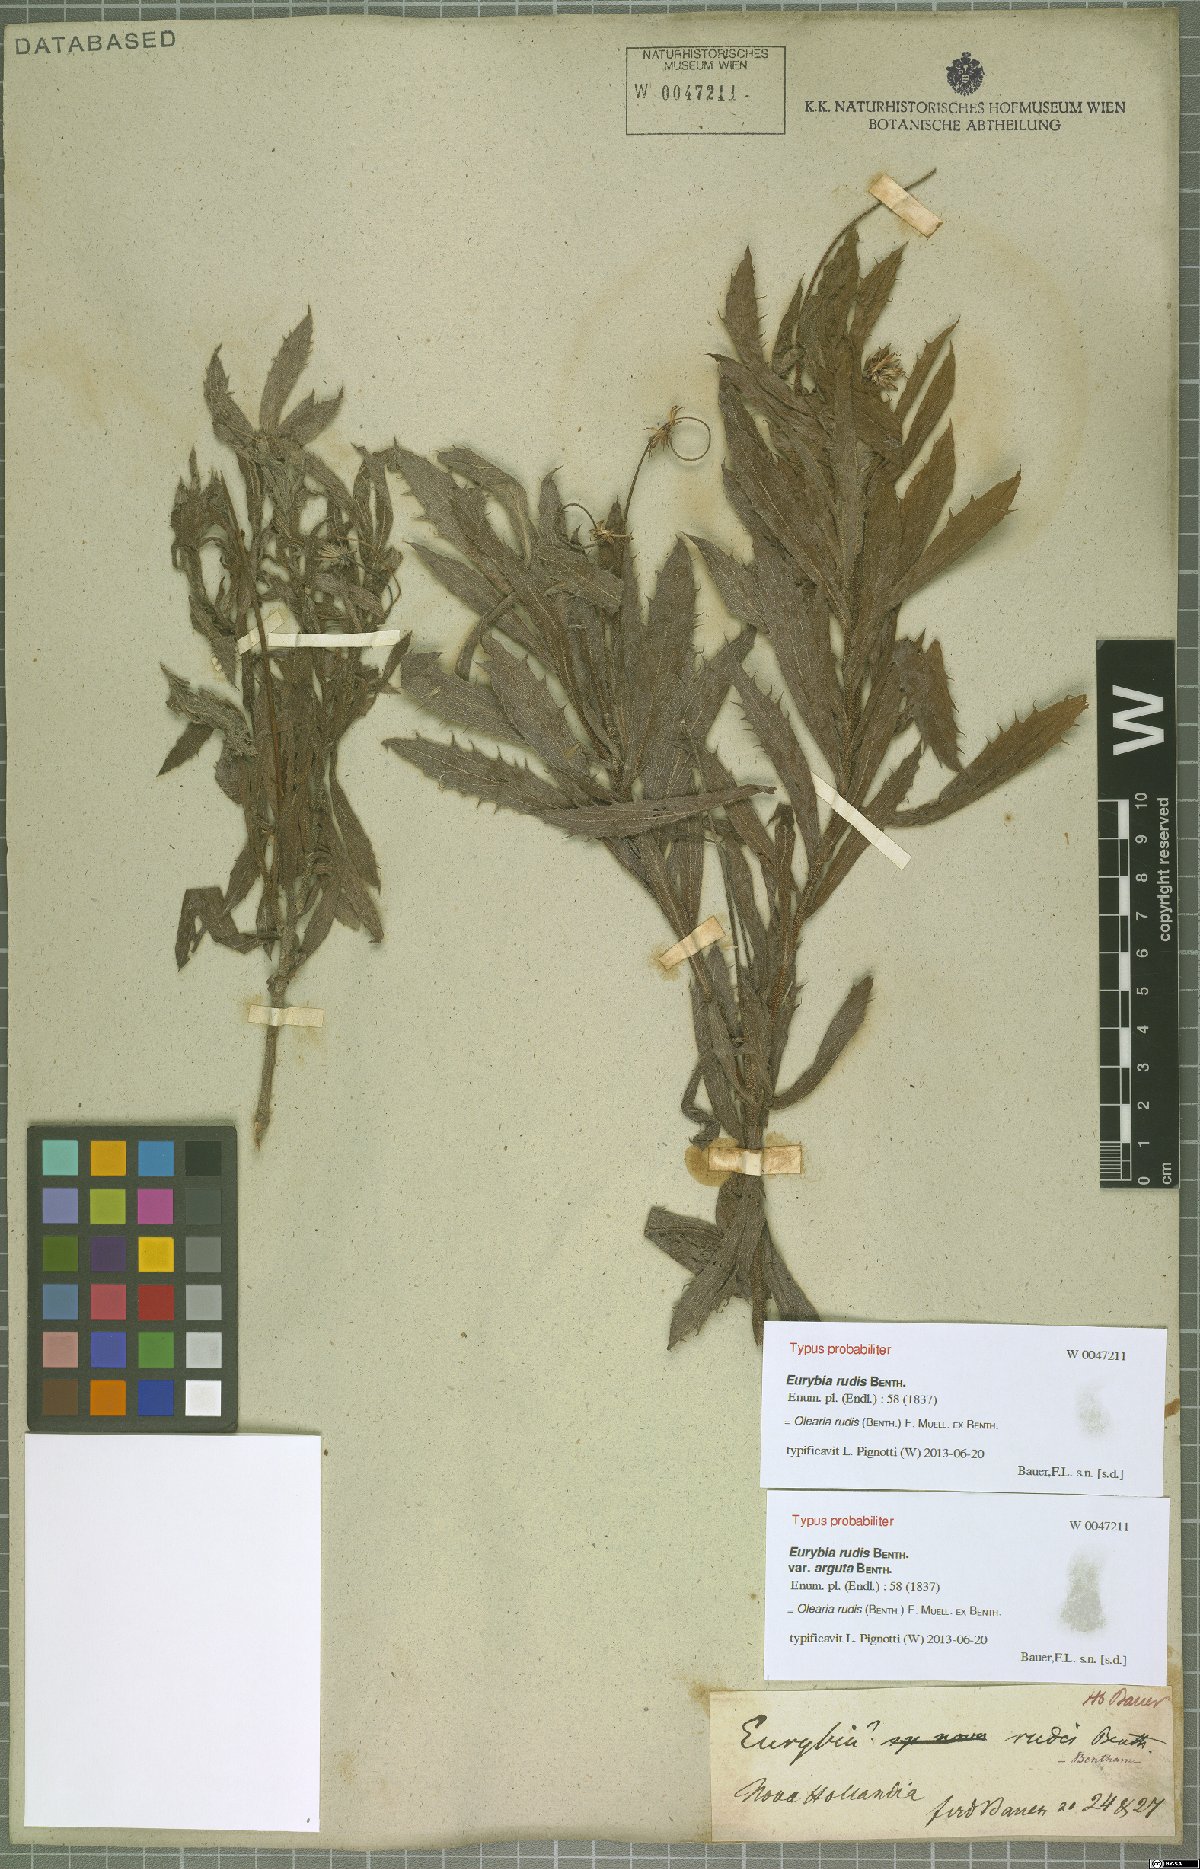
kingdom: Plantae
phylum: Tracheophyta
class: Magnoliopsida
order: Asterales
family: Asteraceae
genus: Muellerolaria
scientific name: Muellerolaria rudis
